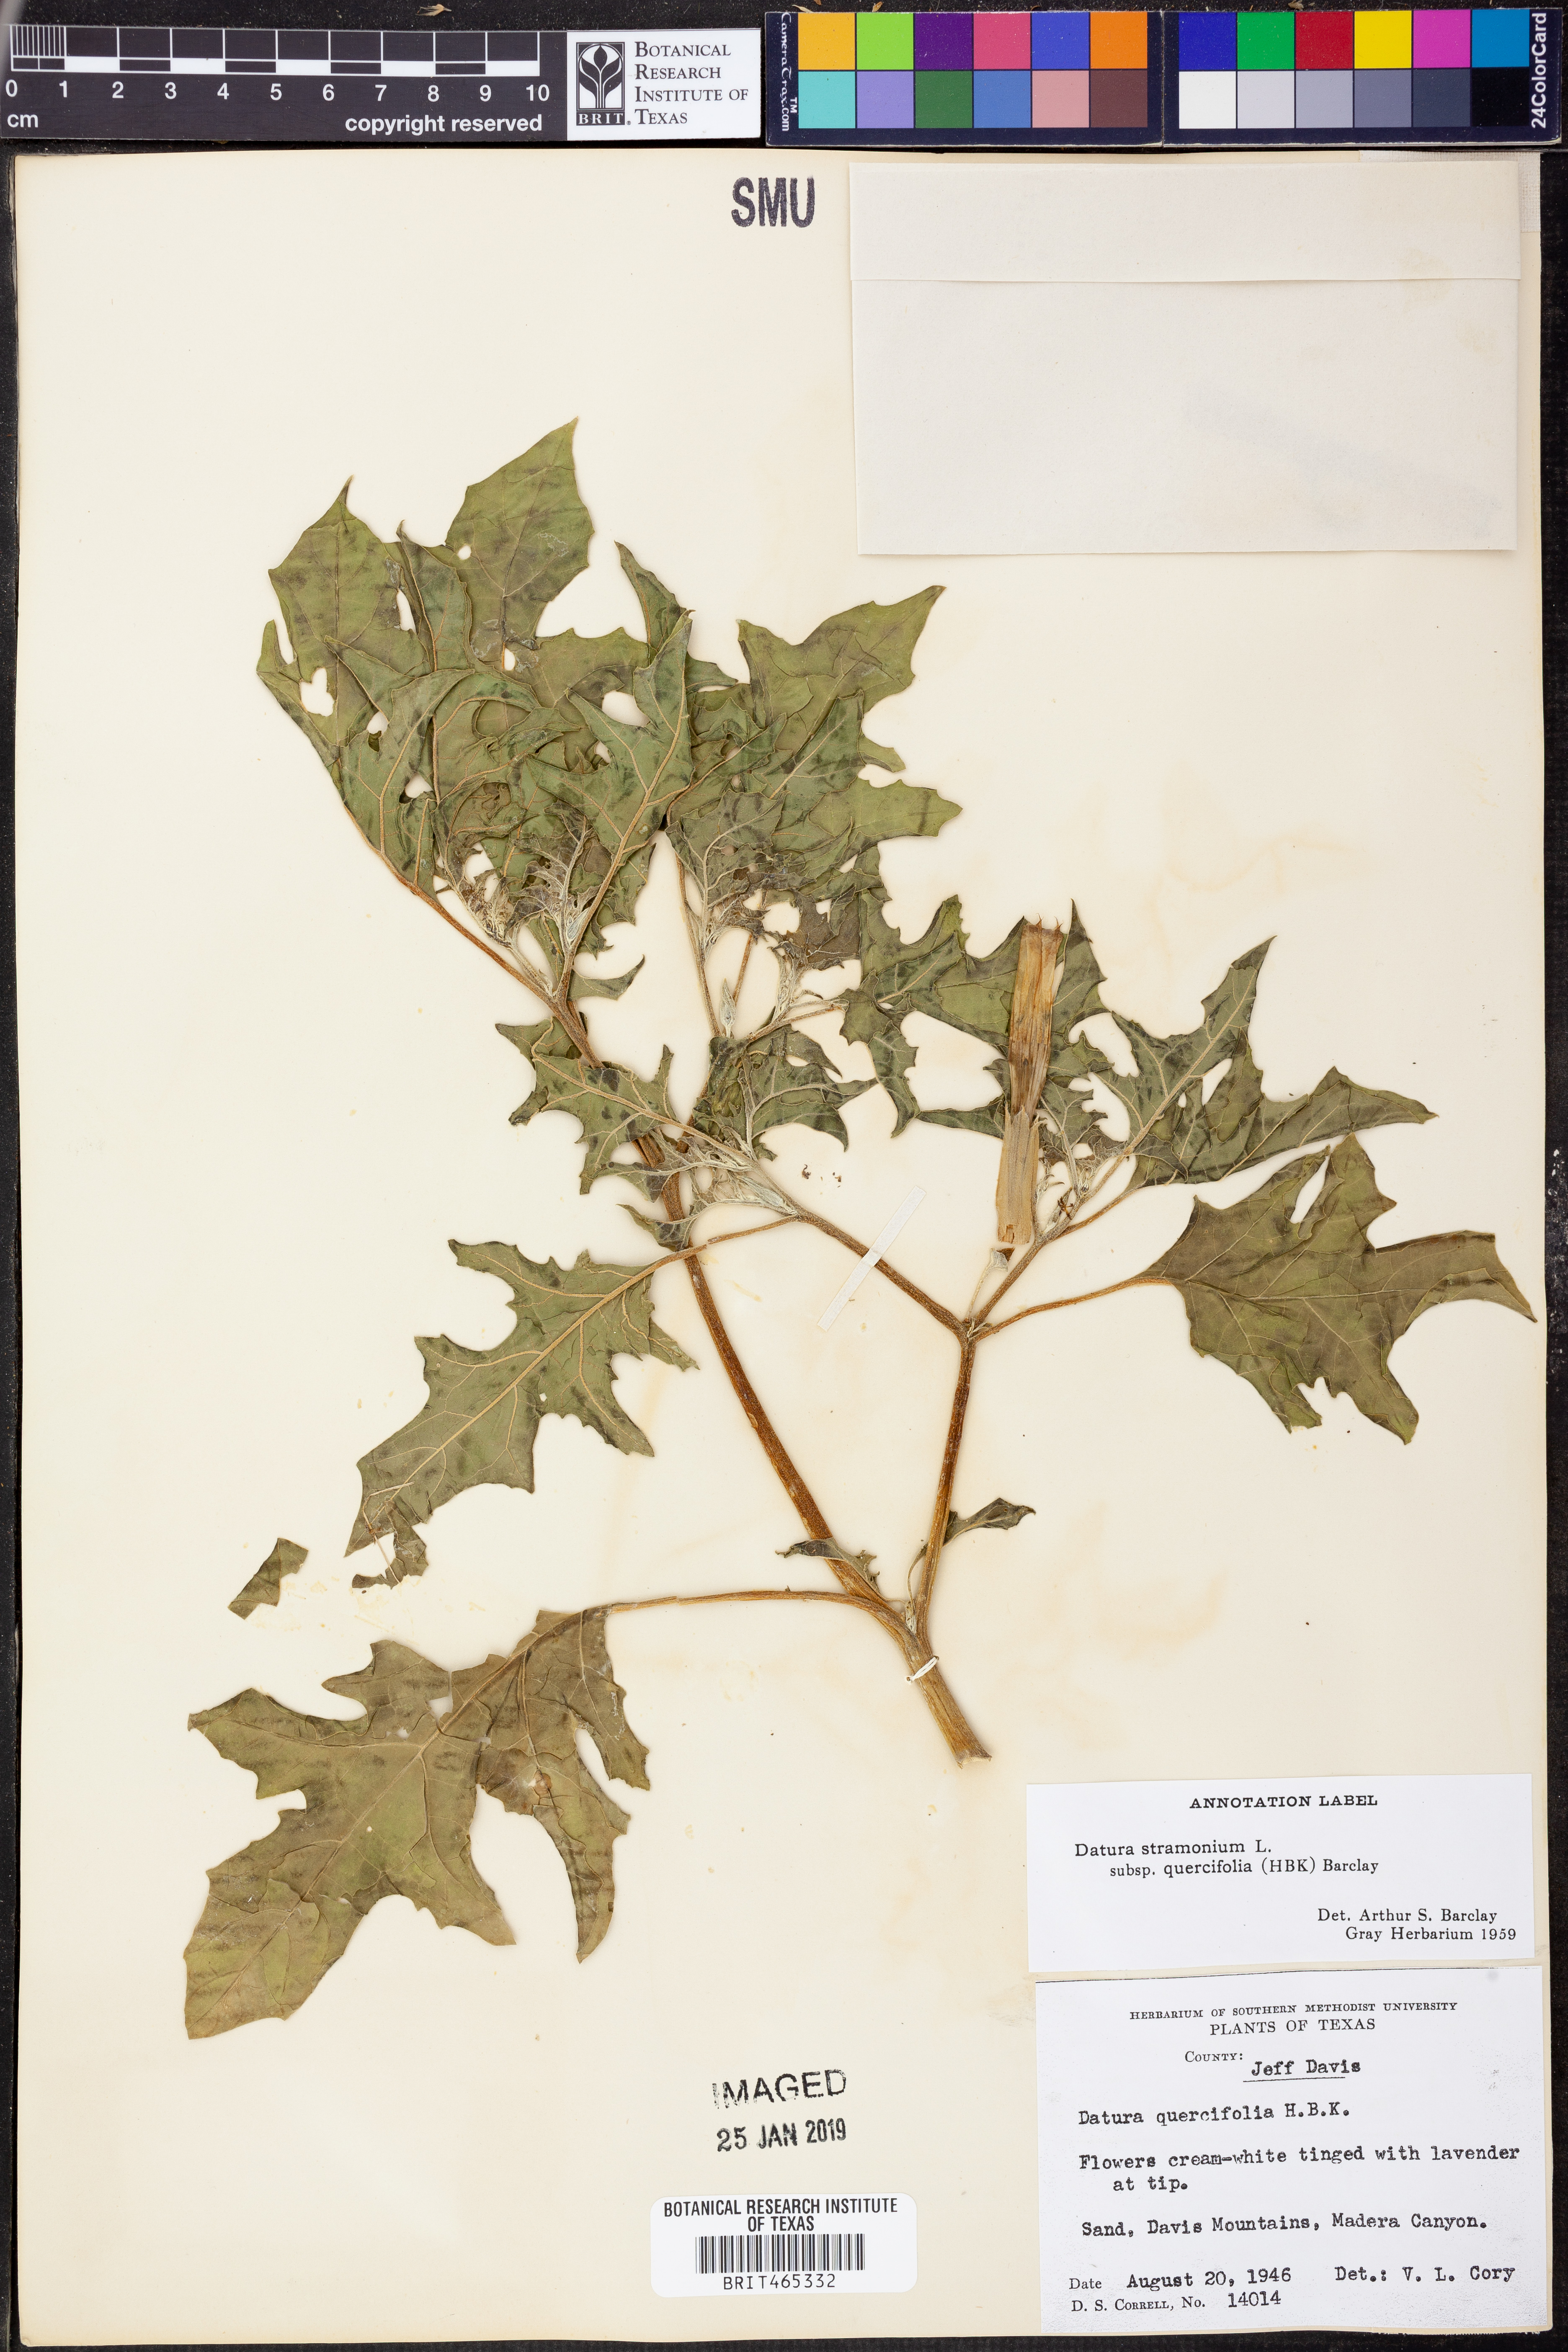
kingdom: Plantae
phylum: Tracheophyta
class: Magnoliopsida
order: Solanales
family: Solanaceae
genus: Datura
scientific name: Datura stramonium
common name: Thorn-apple
